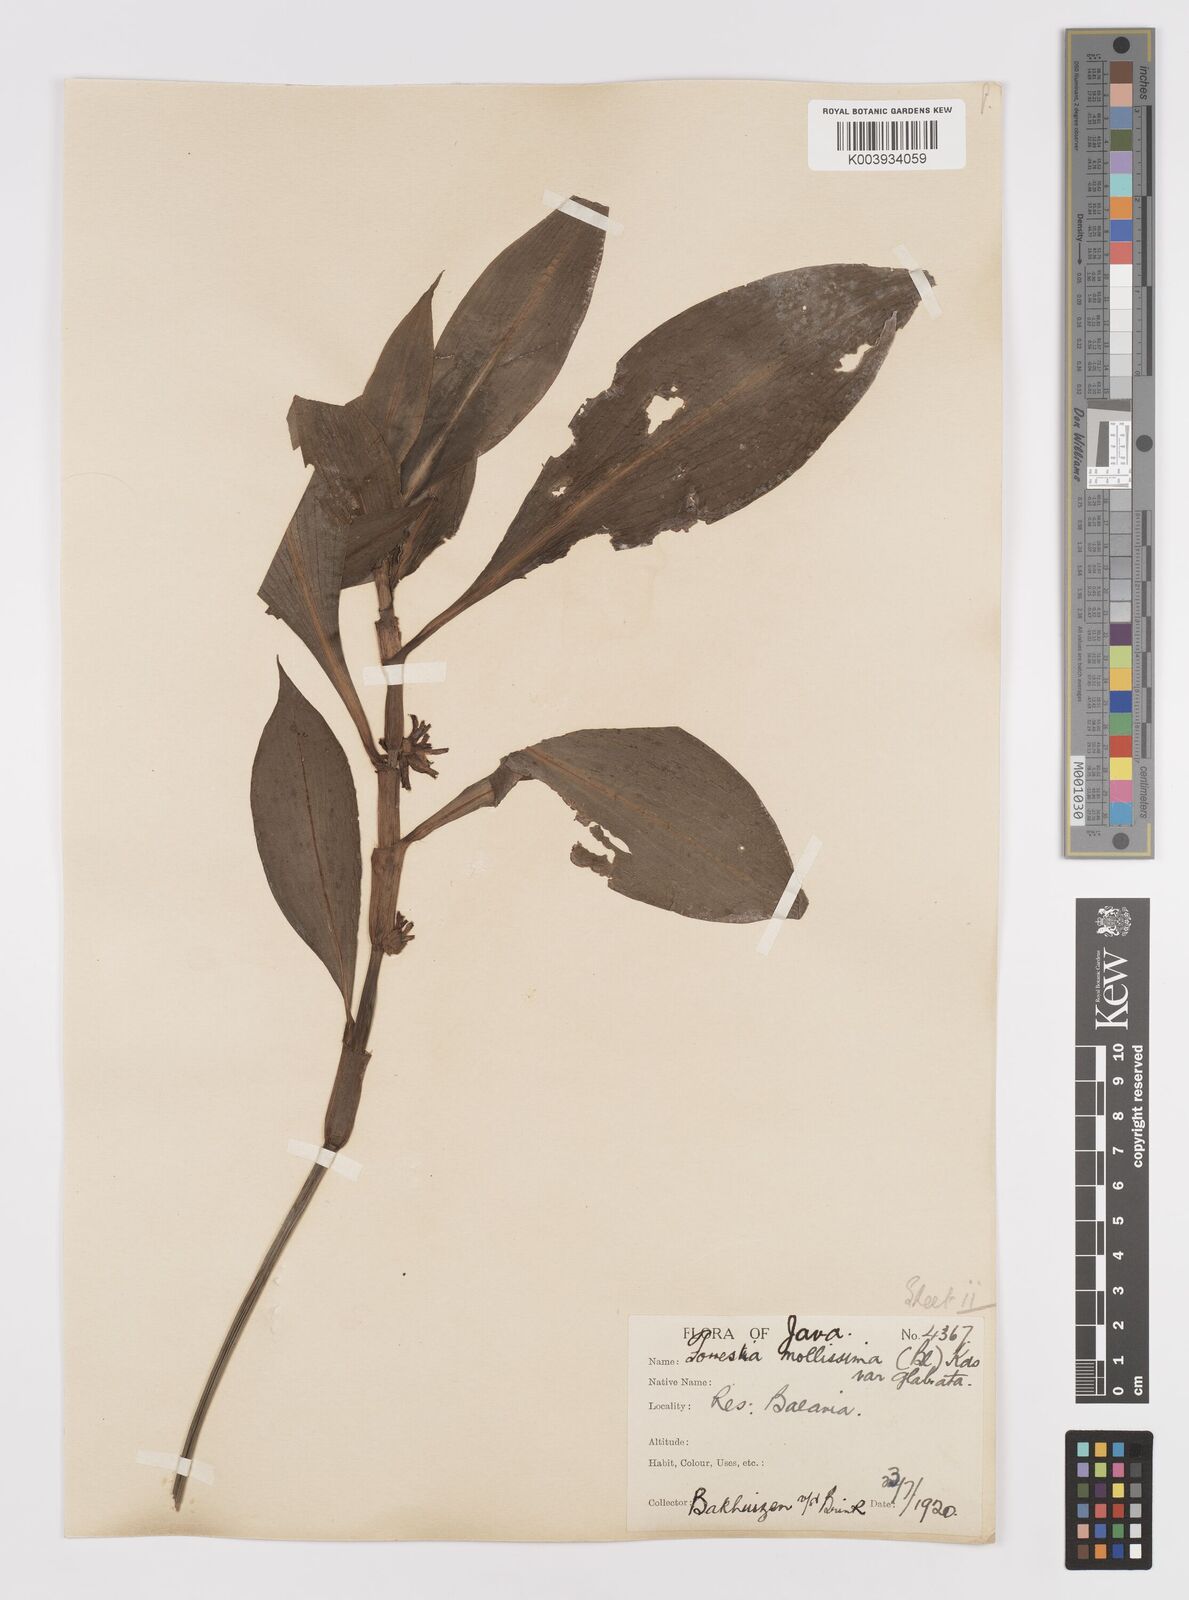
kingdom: Plantae
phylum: Tracheophyta
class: Liliopsida
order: Commelinales
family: Commelinaceae
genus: Amischotolype
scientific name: Amischotolype glabrata
